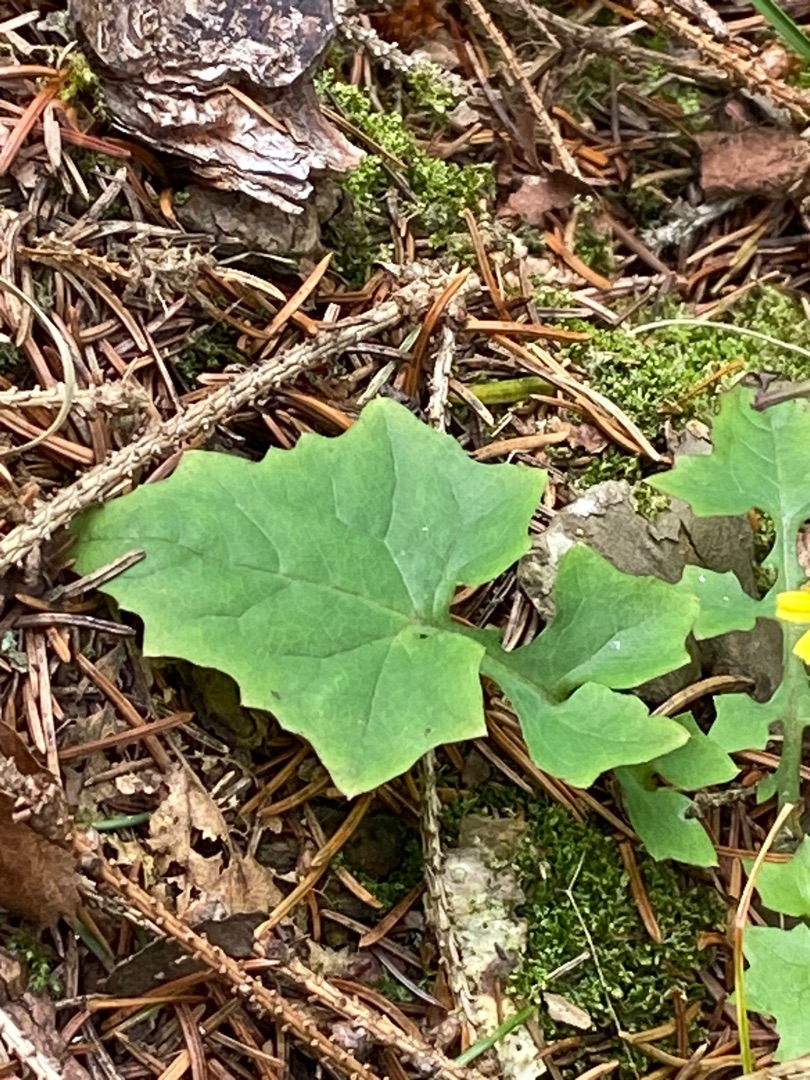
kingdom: Plantae
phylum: Tracheophyta
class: Magnoliopsida
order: Asterales
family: Asteraceae
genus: Mycelis
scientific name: Mycelis muralis
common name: Skov-salat
